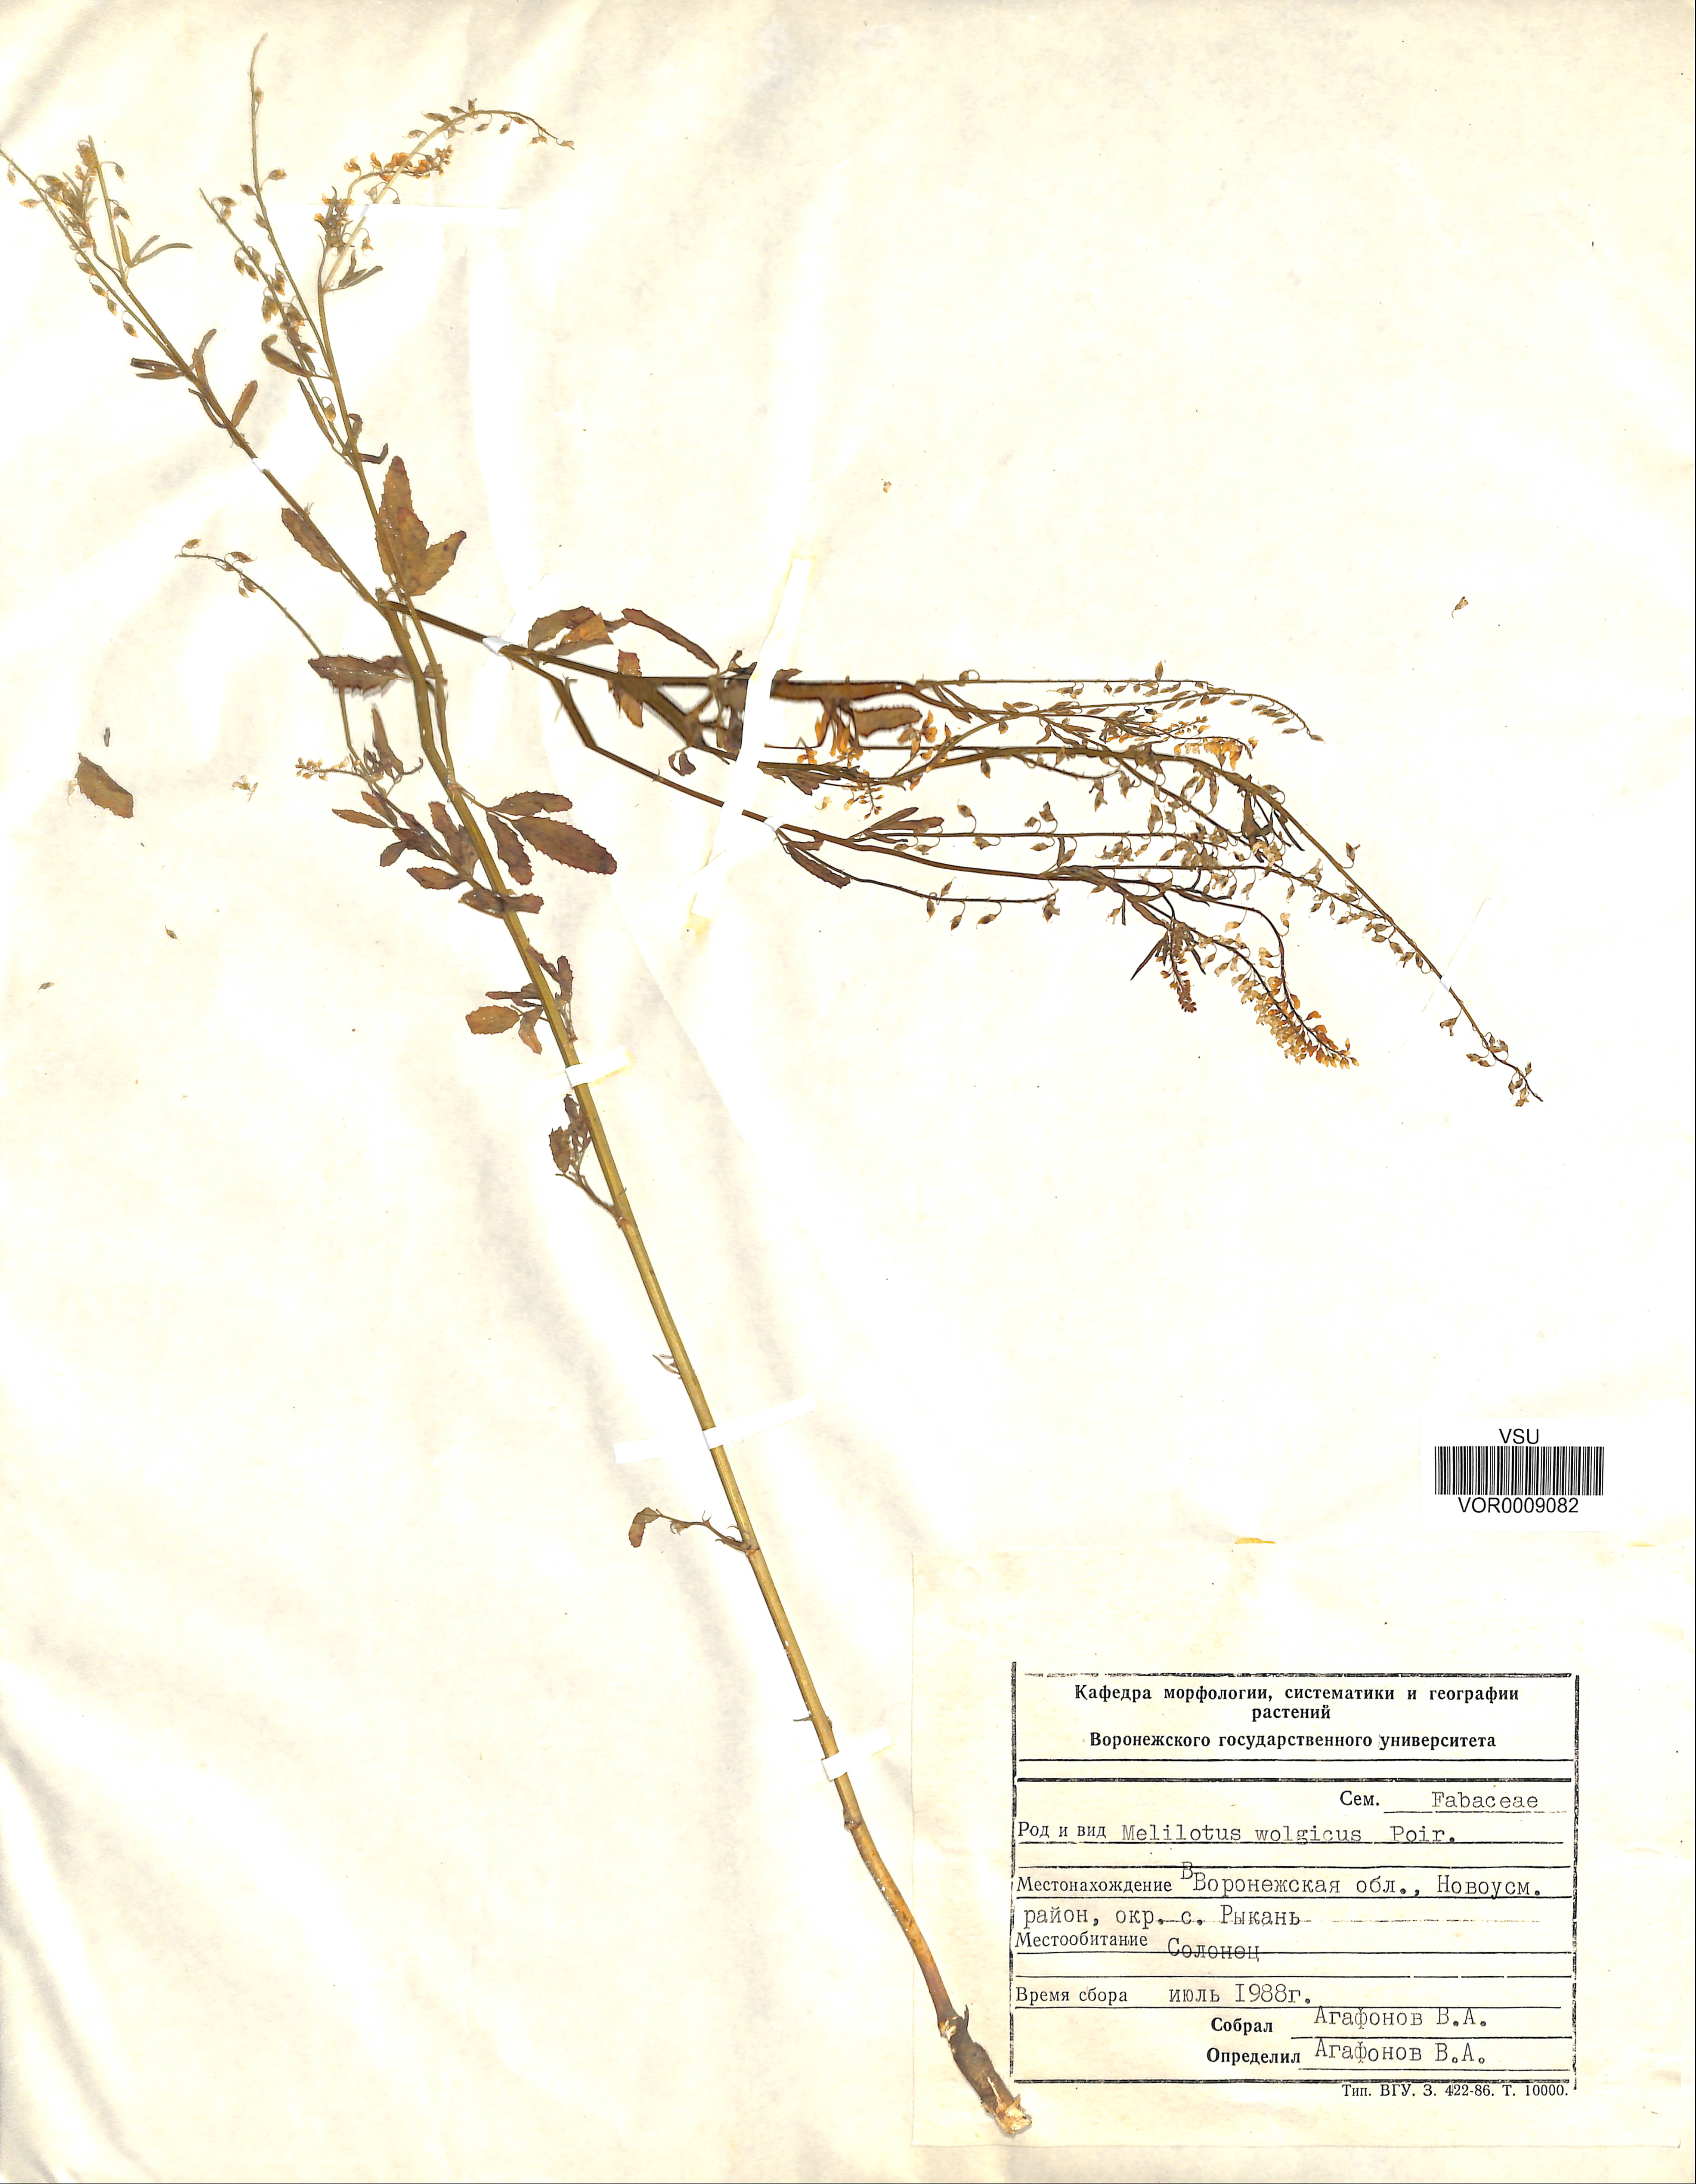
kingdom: Plantae
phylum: Tracheophyta
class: Magnoliopsida
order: Fabales
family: Fabaceae
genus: Melilotus
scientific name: Melilotus wolgicus
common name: Volga sweet-clover
